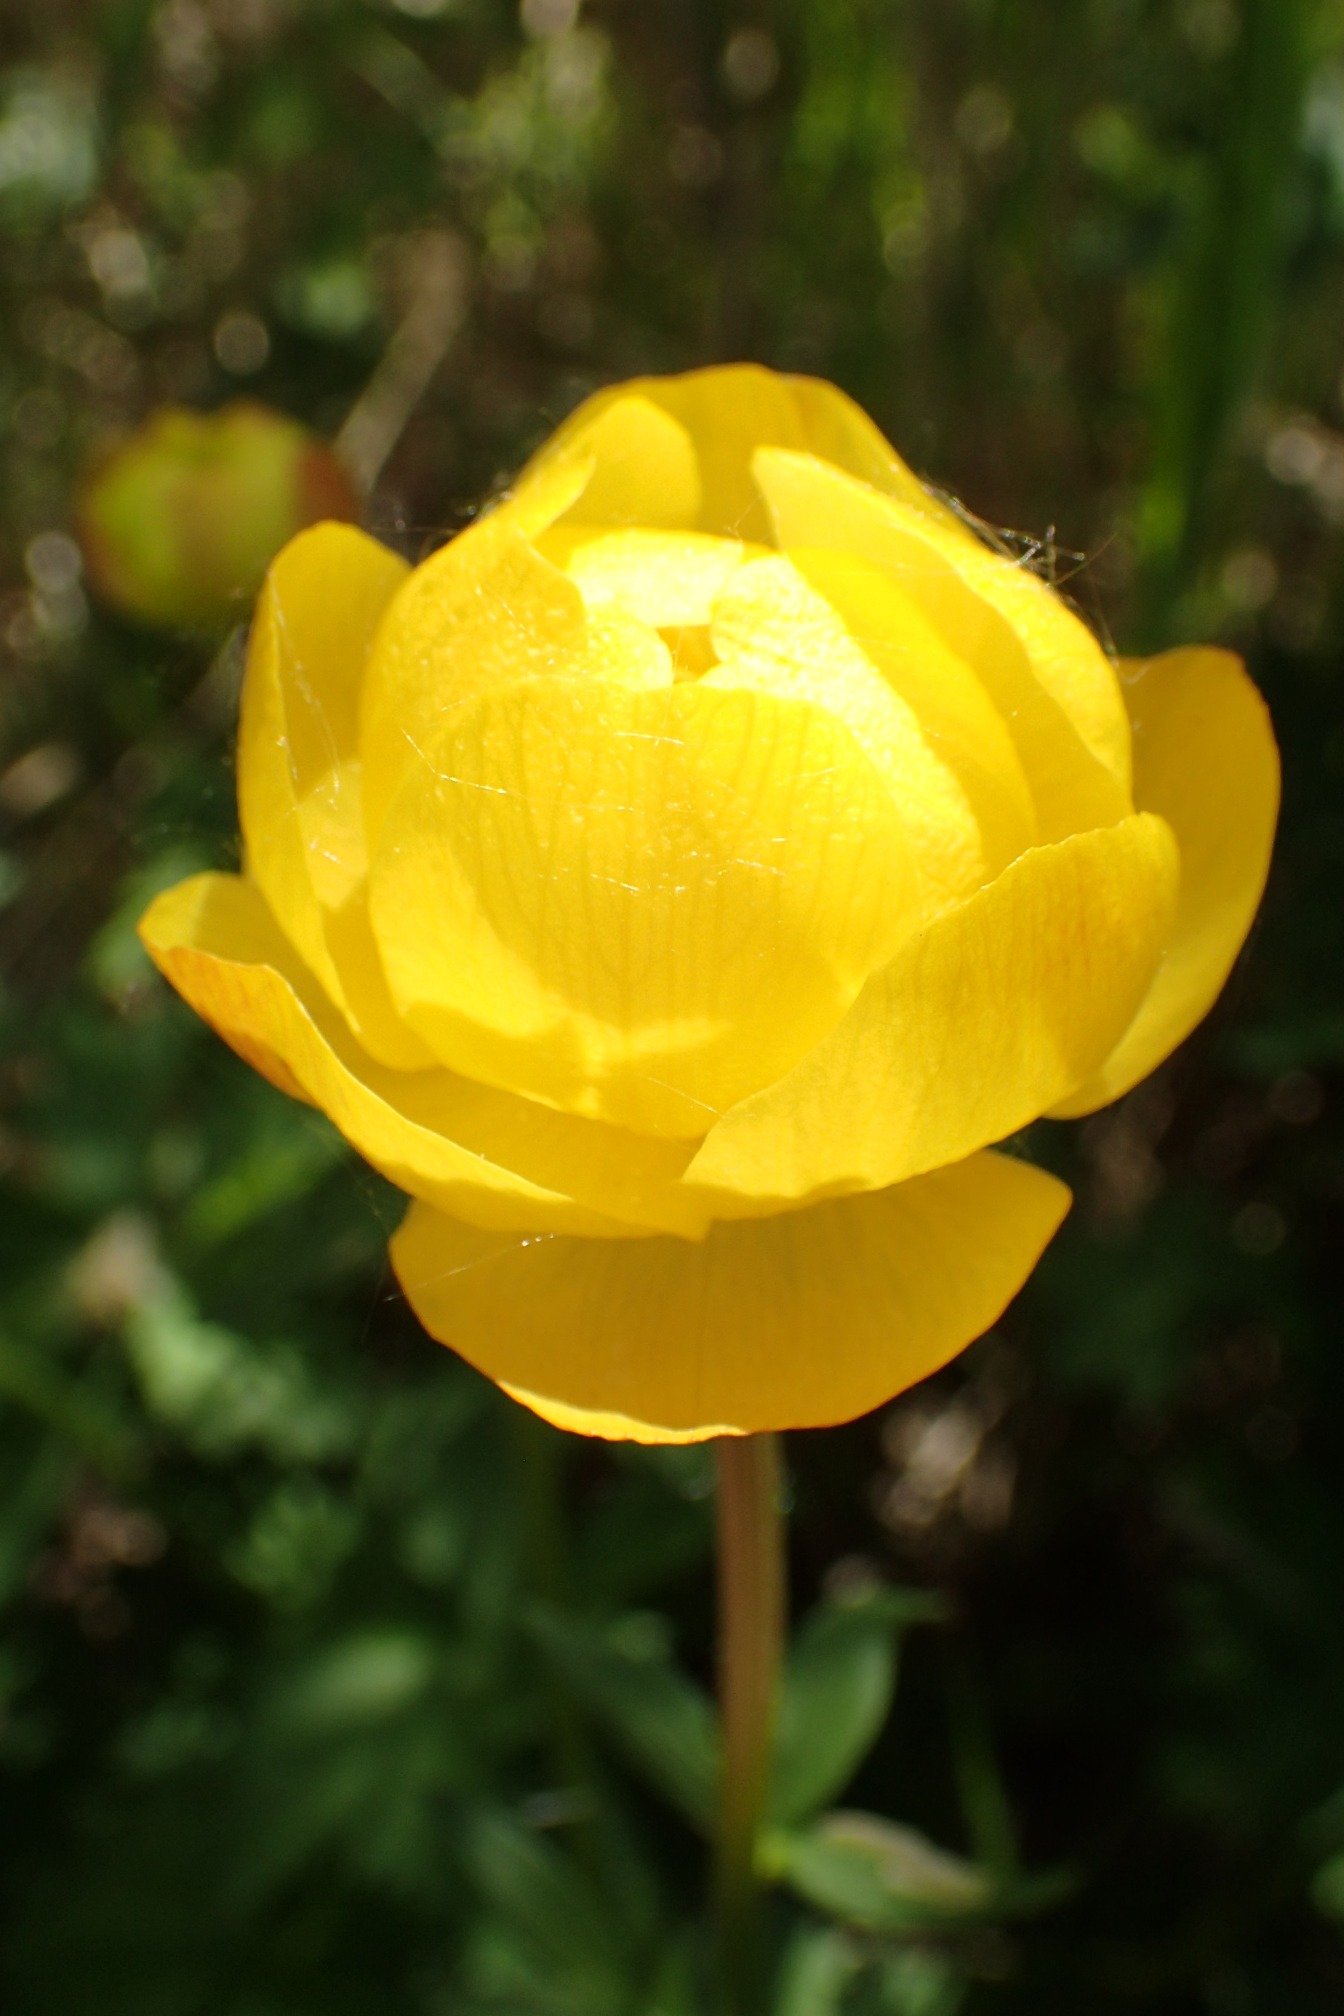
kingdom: Plantae
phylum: Tracheophyta
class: Magnoliopsida
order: Ranunculales
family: Ranunculaceae
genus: Trollius
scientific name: Trollius europaeus
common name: Engblomme
